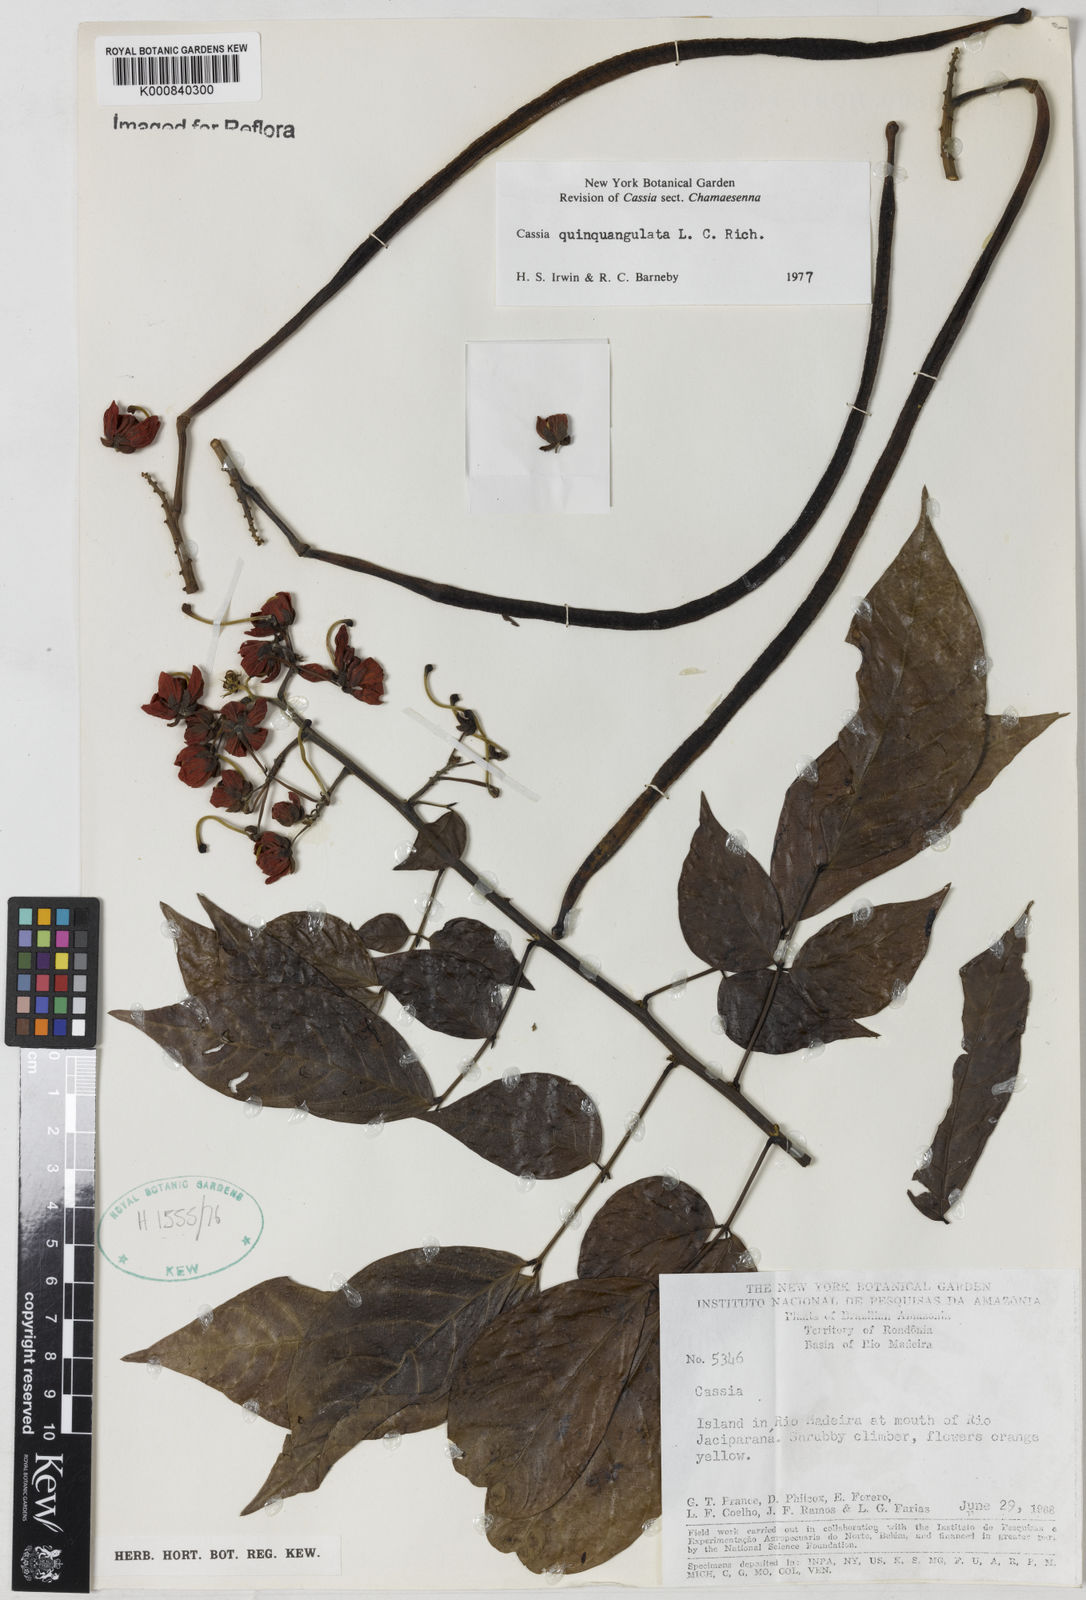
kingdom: Plantae
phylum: Tracheophyta
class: Magnoliopsida
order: Fabales
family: Fabaceae
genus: Senna
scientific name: Senna
